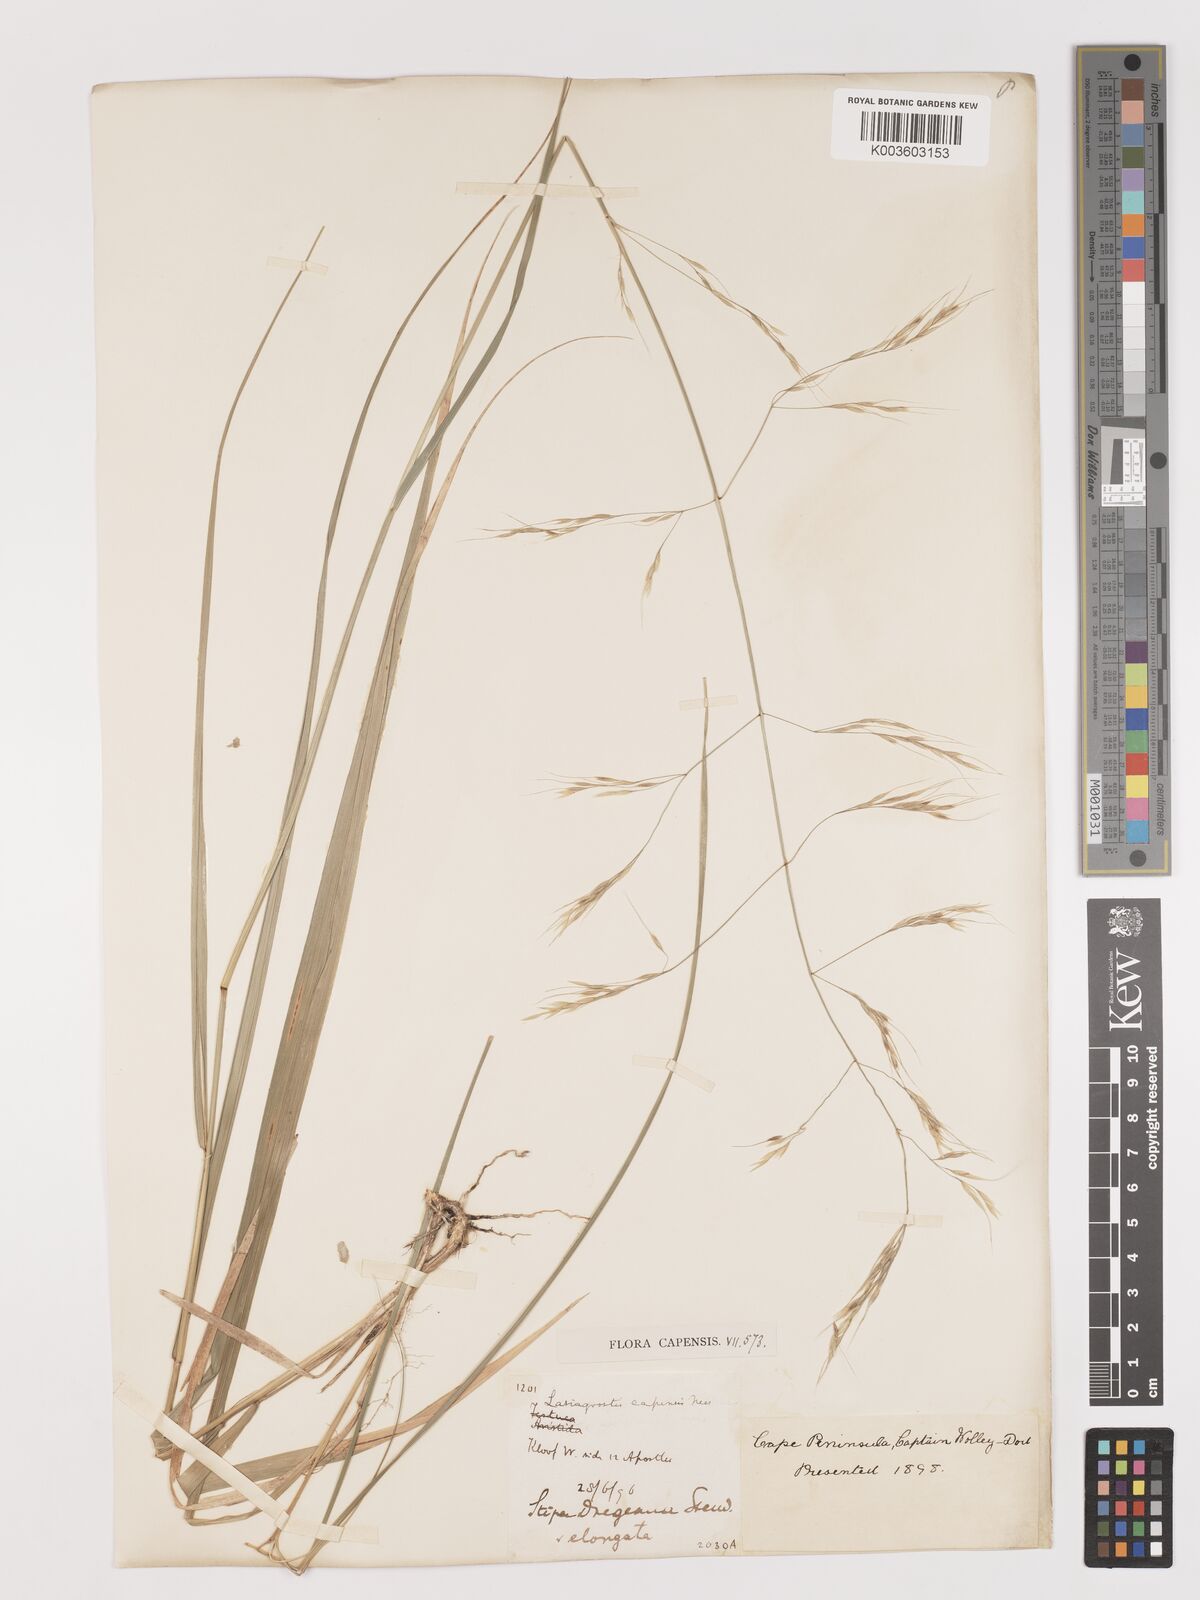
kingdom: Plantae
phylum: Tracheophyta
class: Liliopsida
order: Poales
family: Poaceae
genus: Stipa
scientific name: Stipa dregeana
